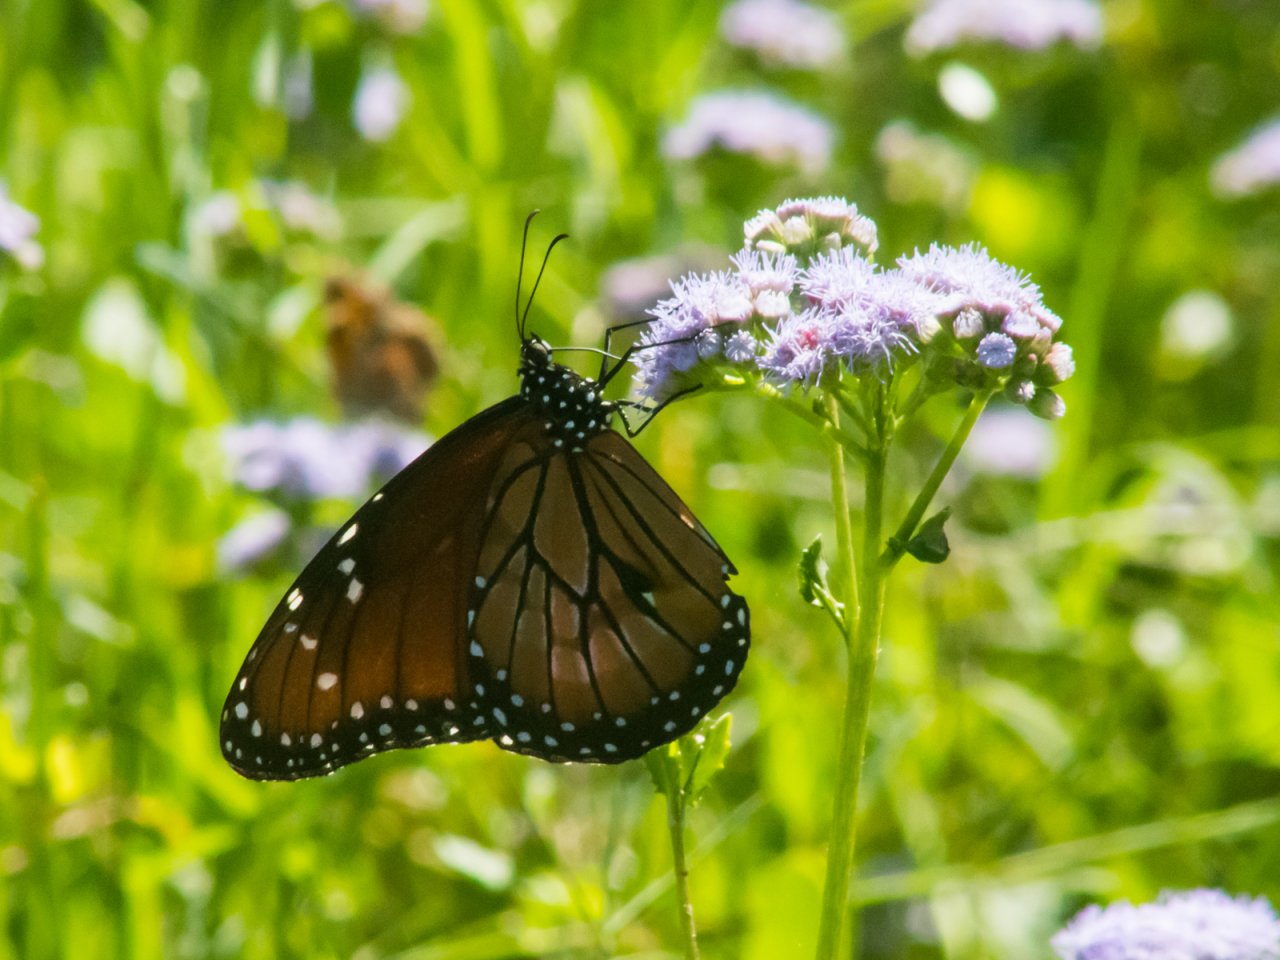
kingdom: Animalia
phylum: Arthropoda
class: Insecta
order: Lepidoptera
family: Nymphalidae
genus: Danaus
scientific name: Danaus eresimus
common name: Soldier
